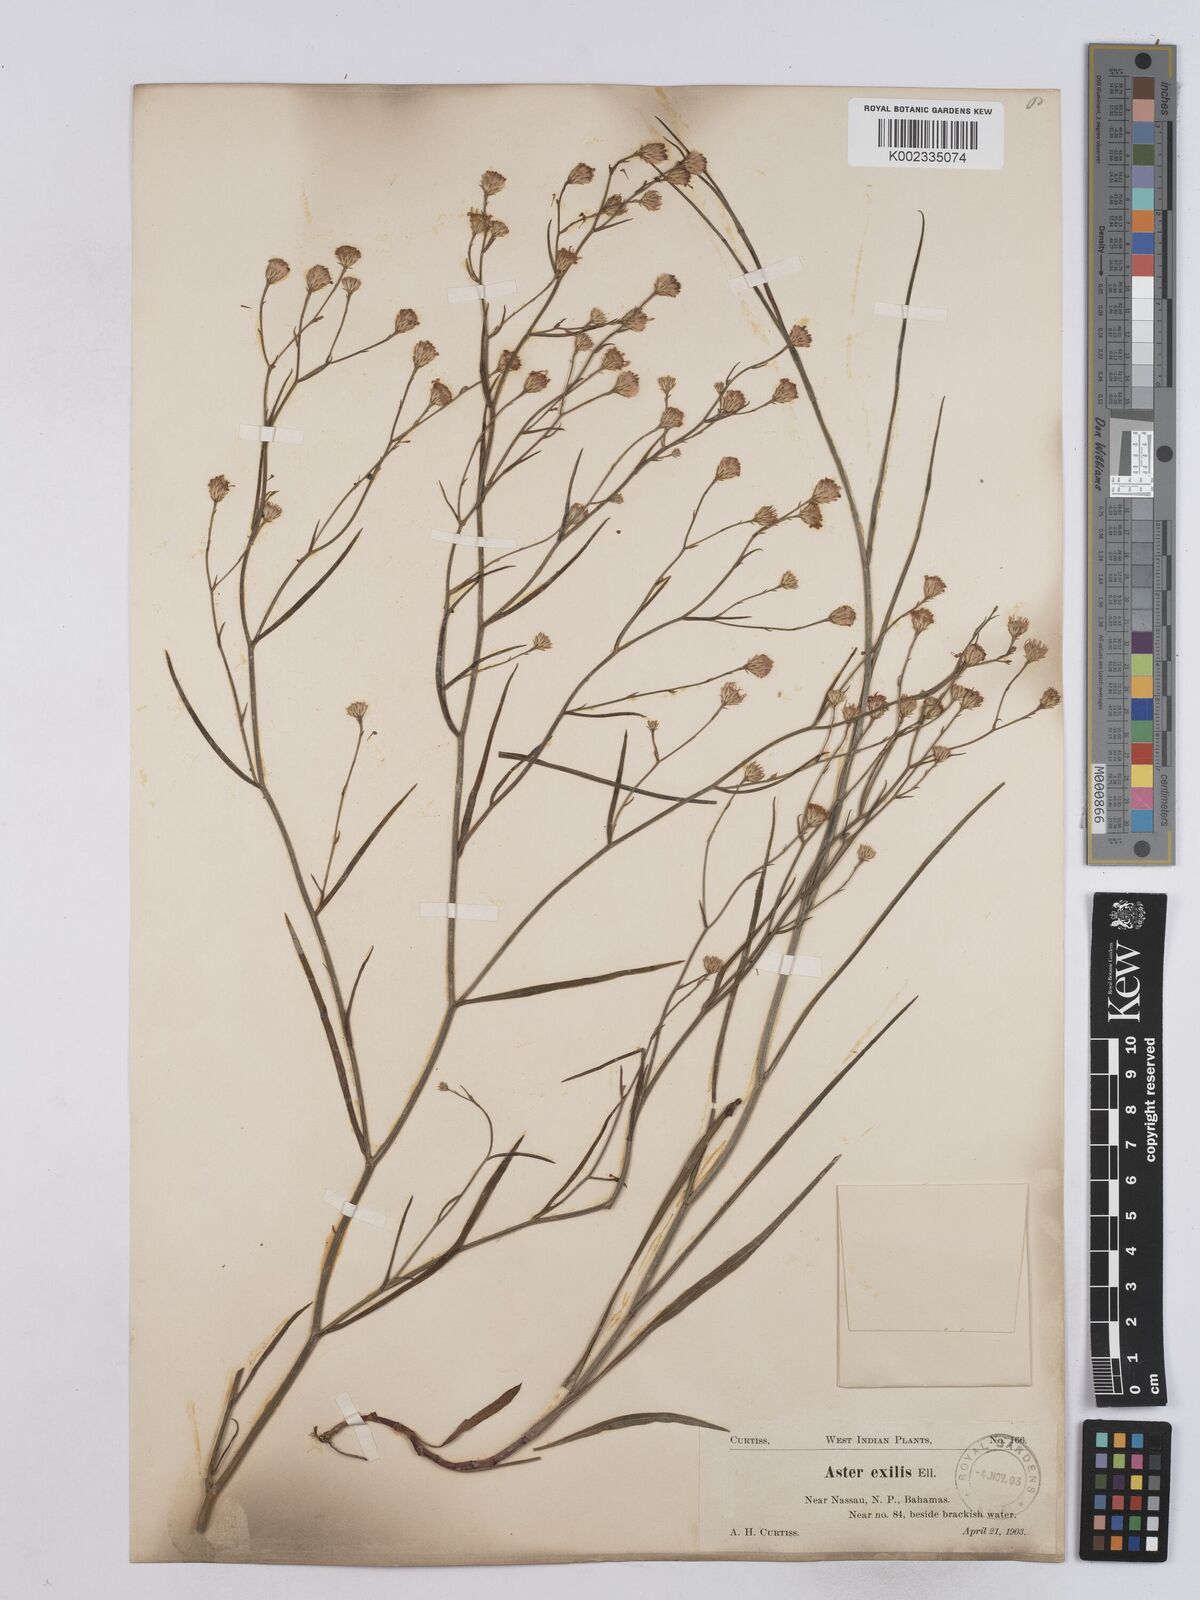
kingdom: Plantae
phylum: Tracheophyta
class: Magnoliopsida
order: Asterales
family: Asteraceae
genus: Symphyotrichum
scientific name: Symphyotrichum tenuifolium
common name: Perennial salt-marsh aster
